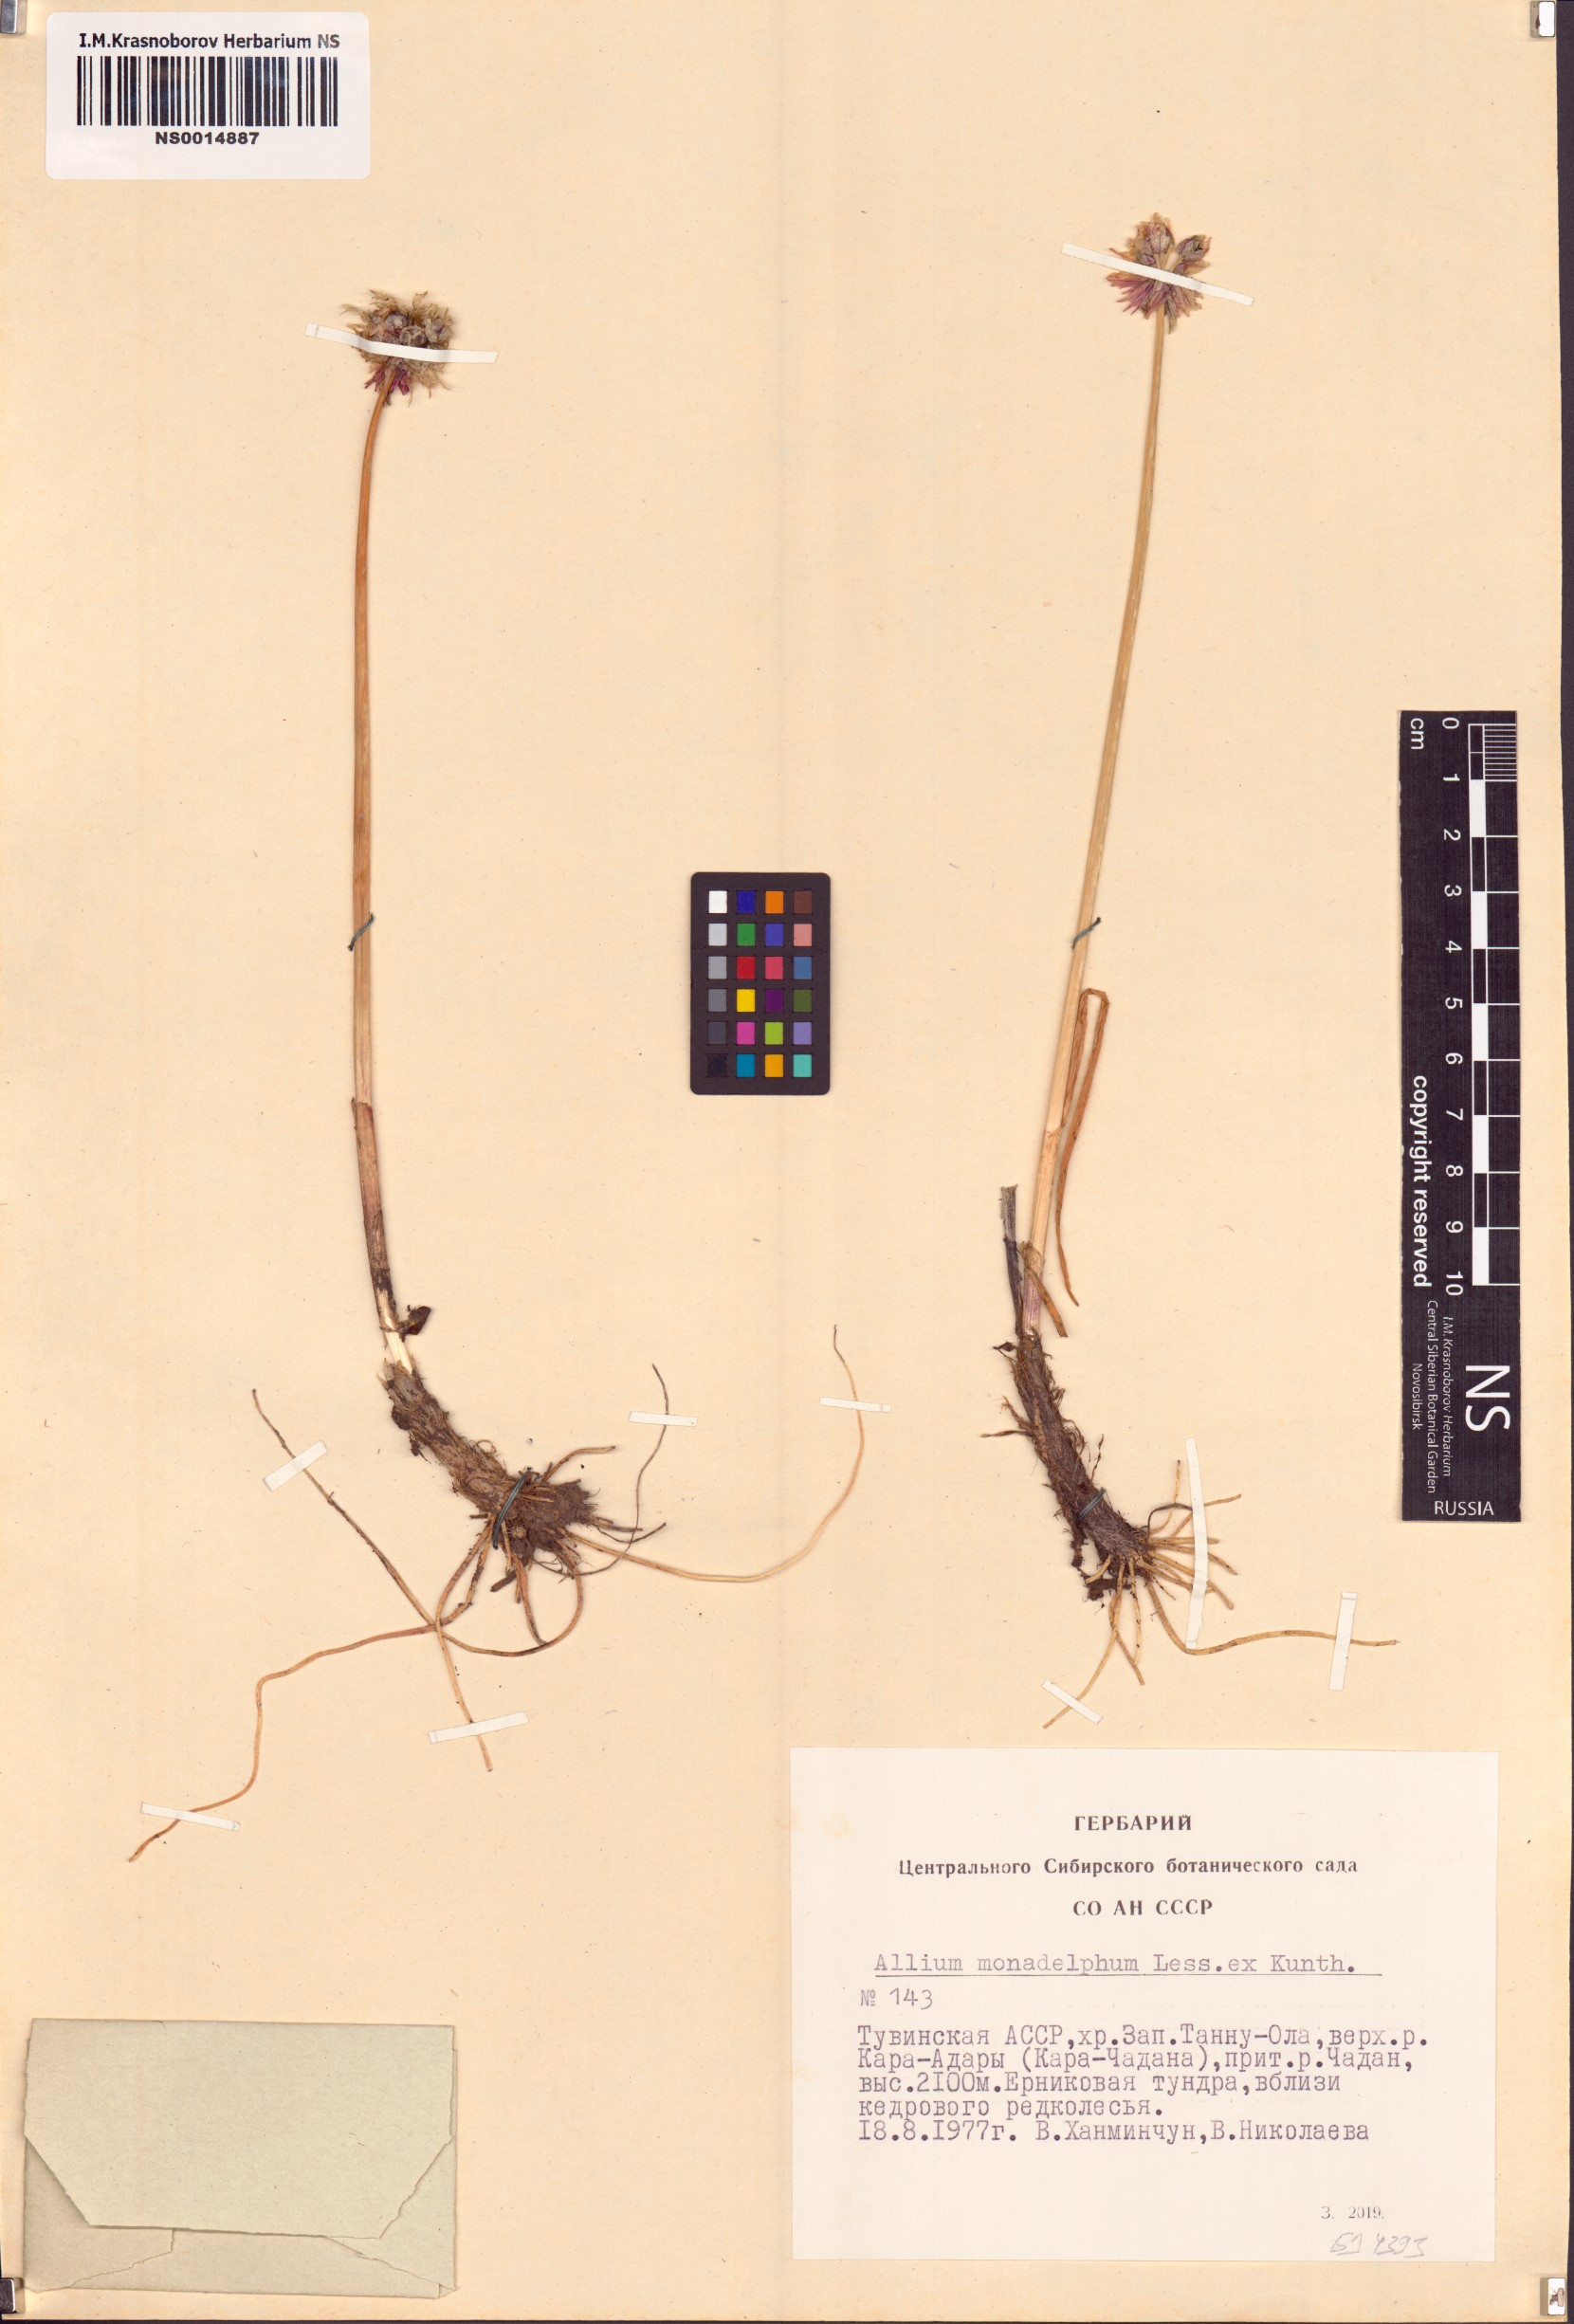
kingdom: Plantae
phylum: Tracheophyta
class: Liliopsida
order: Asparagales
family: Amaryllidaceae
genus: Allium
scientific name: Allium atrosanguineum
